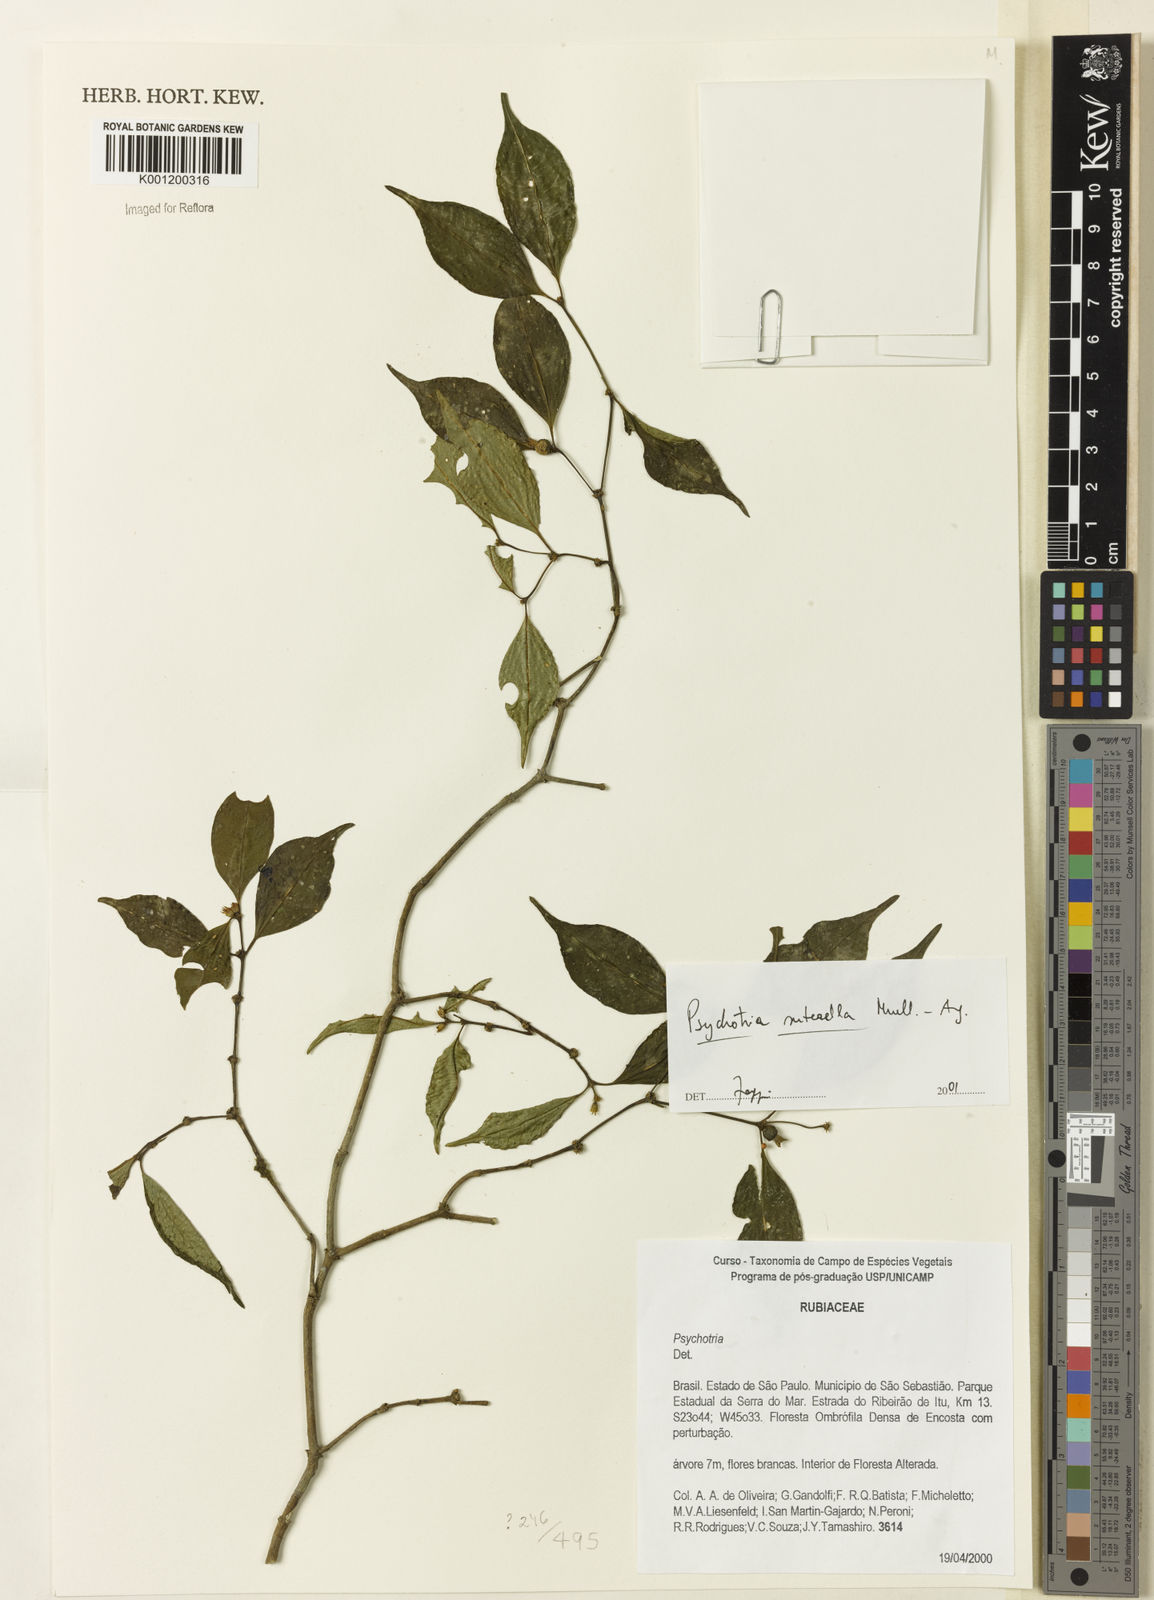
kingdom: Plantae
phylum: Tracheophyta
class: Magnoliopsida
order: Gentianales
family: Rubiaceae
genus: Psychotria
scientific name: Psychotria
